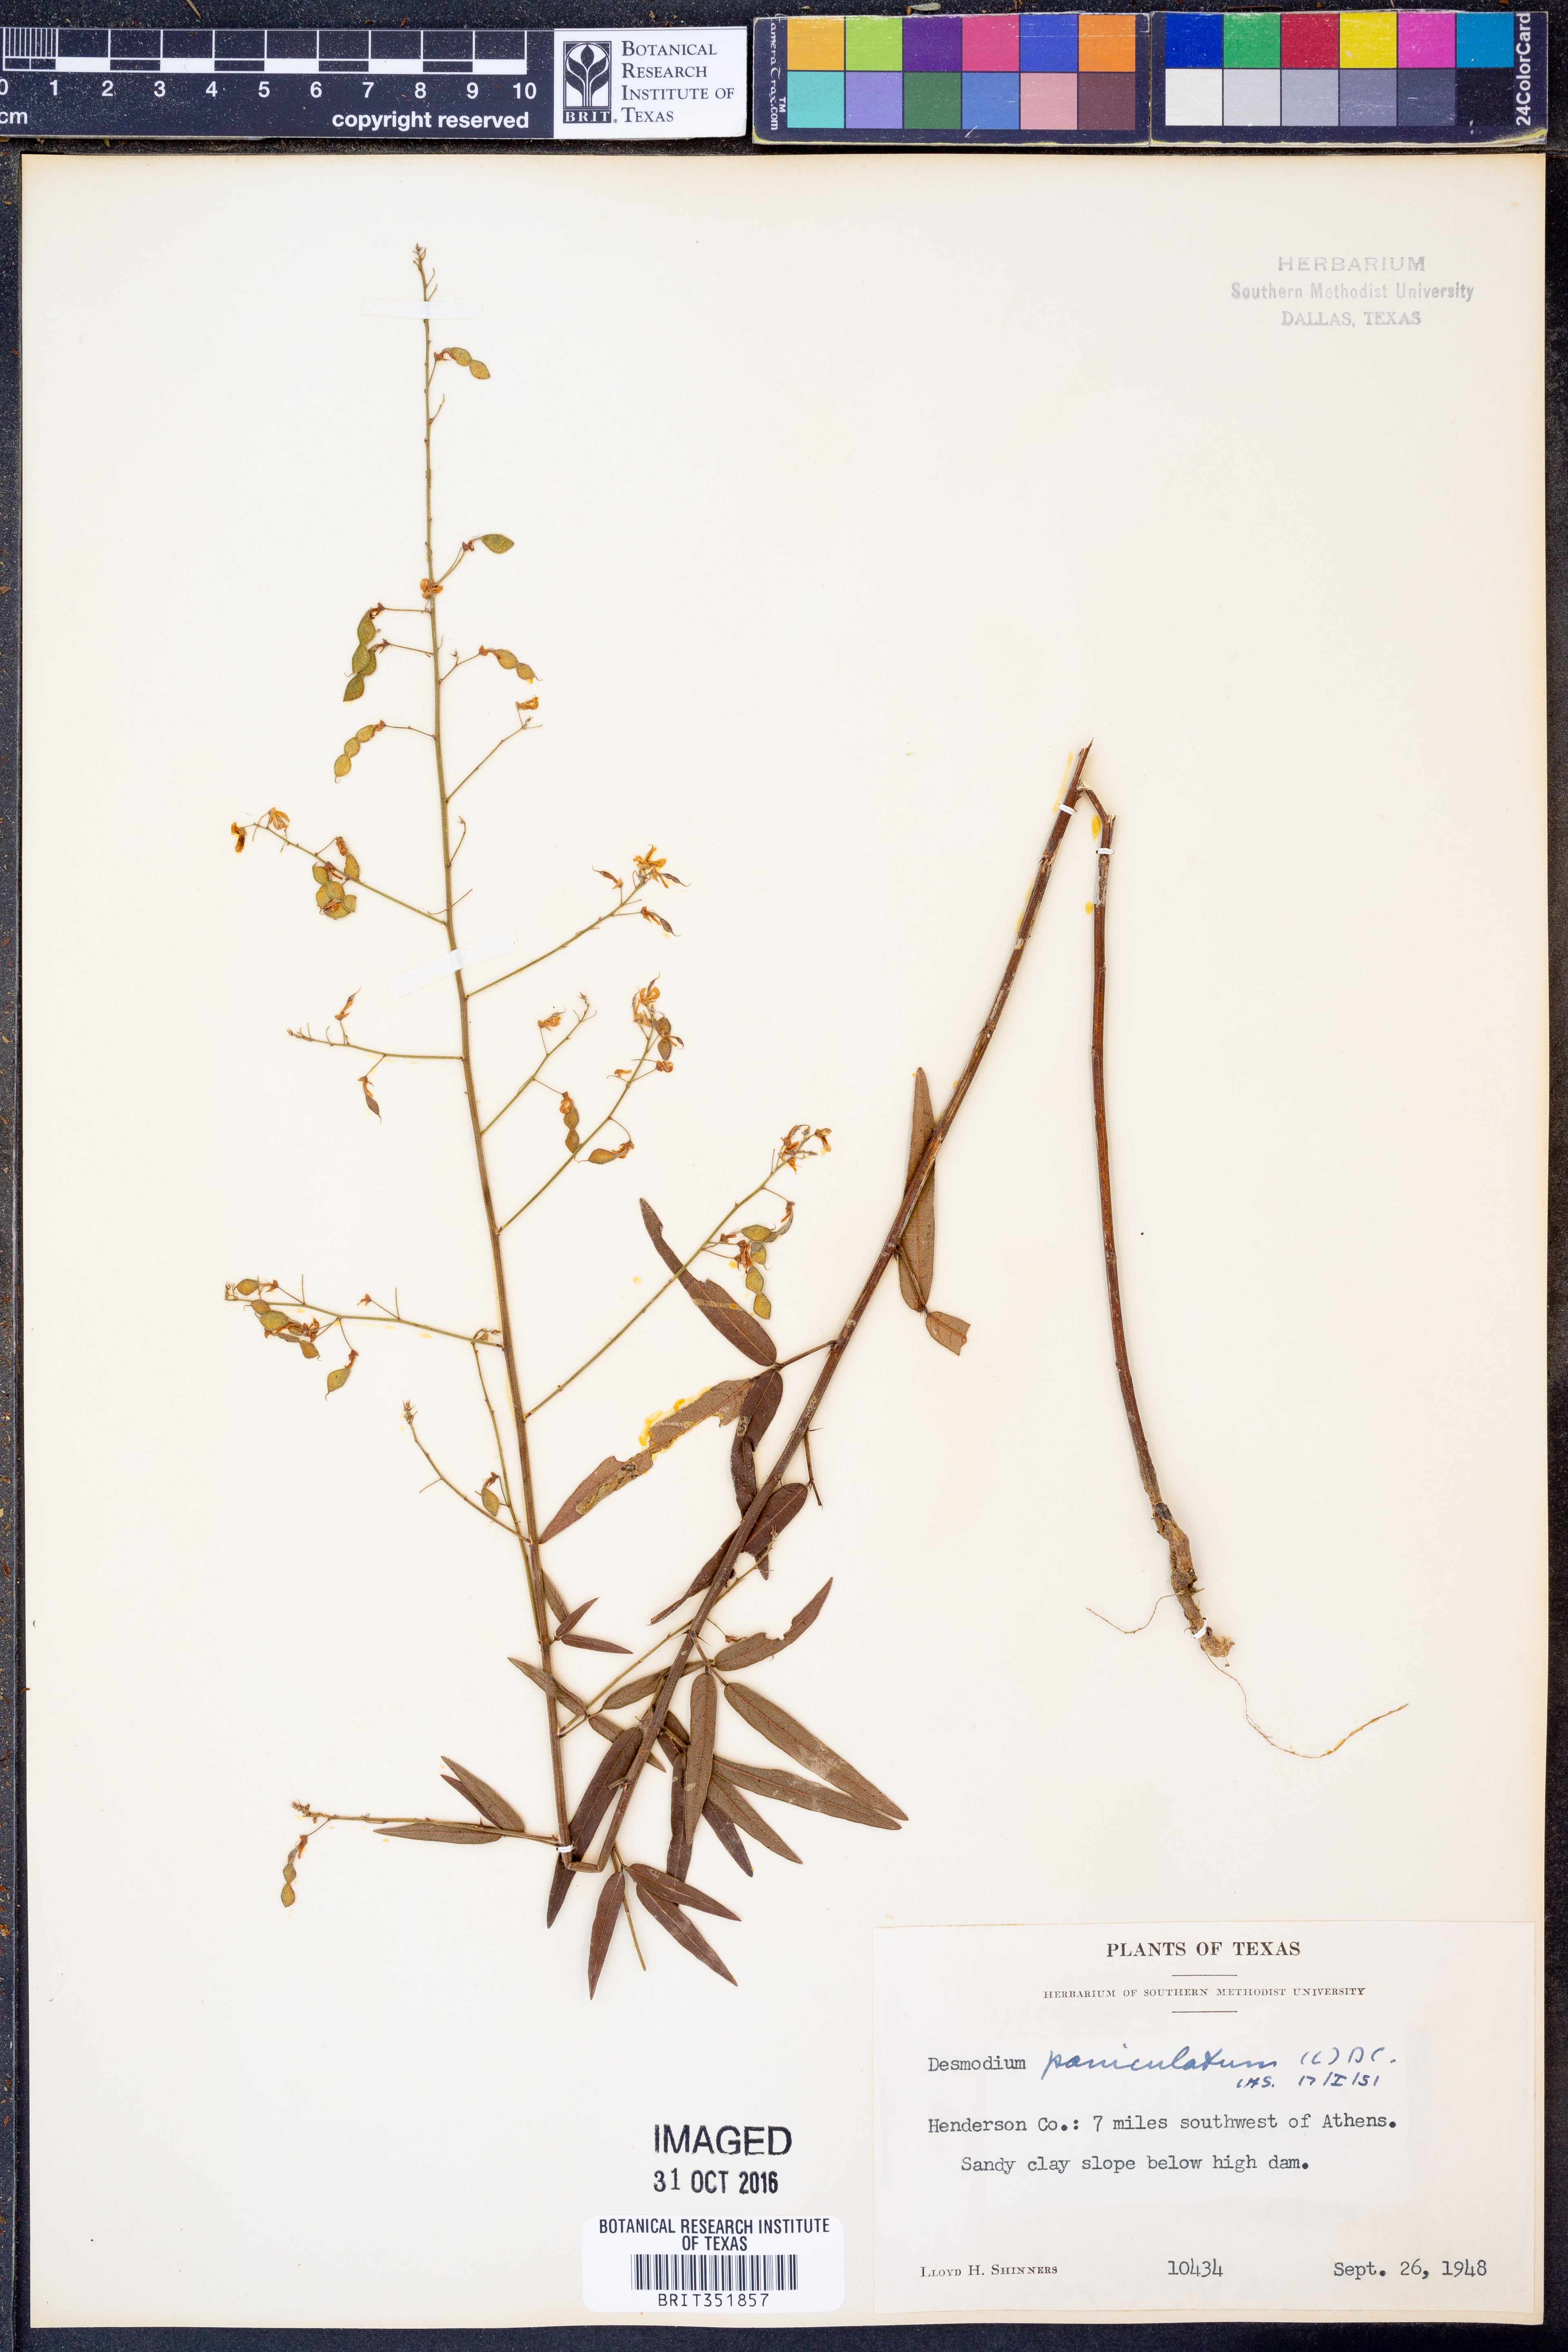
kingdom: Plantae
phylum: Tracheophyta
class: Magnoliopsida
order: Fabales
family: Fabaceae
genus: Desmodium
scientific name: Desmodium paniculatum
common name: Panicled tick-clover
